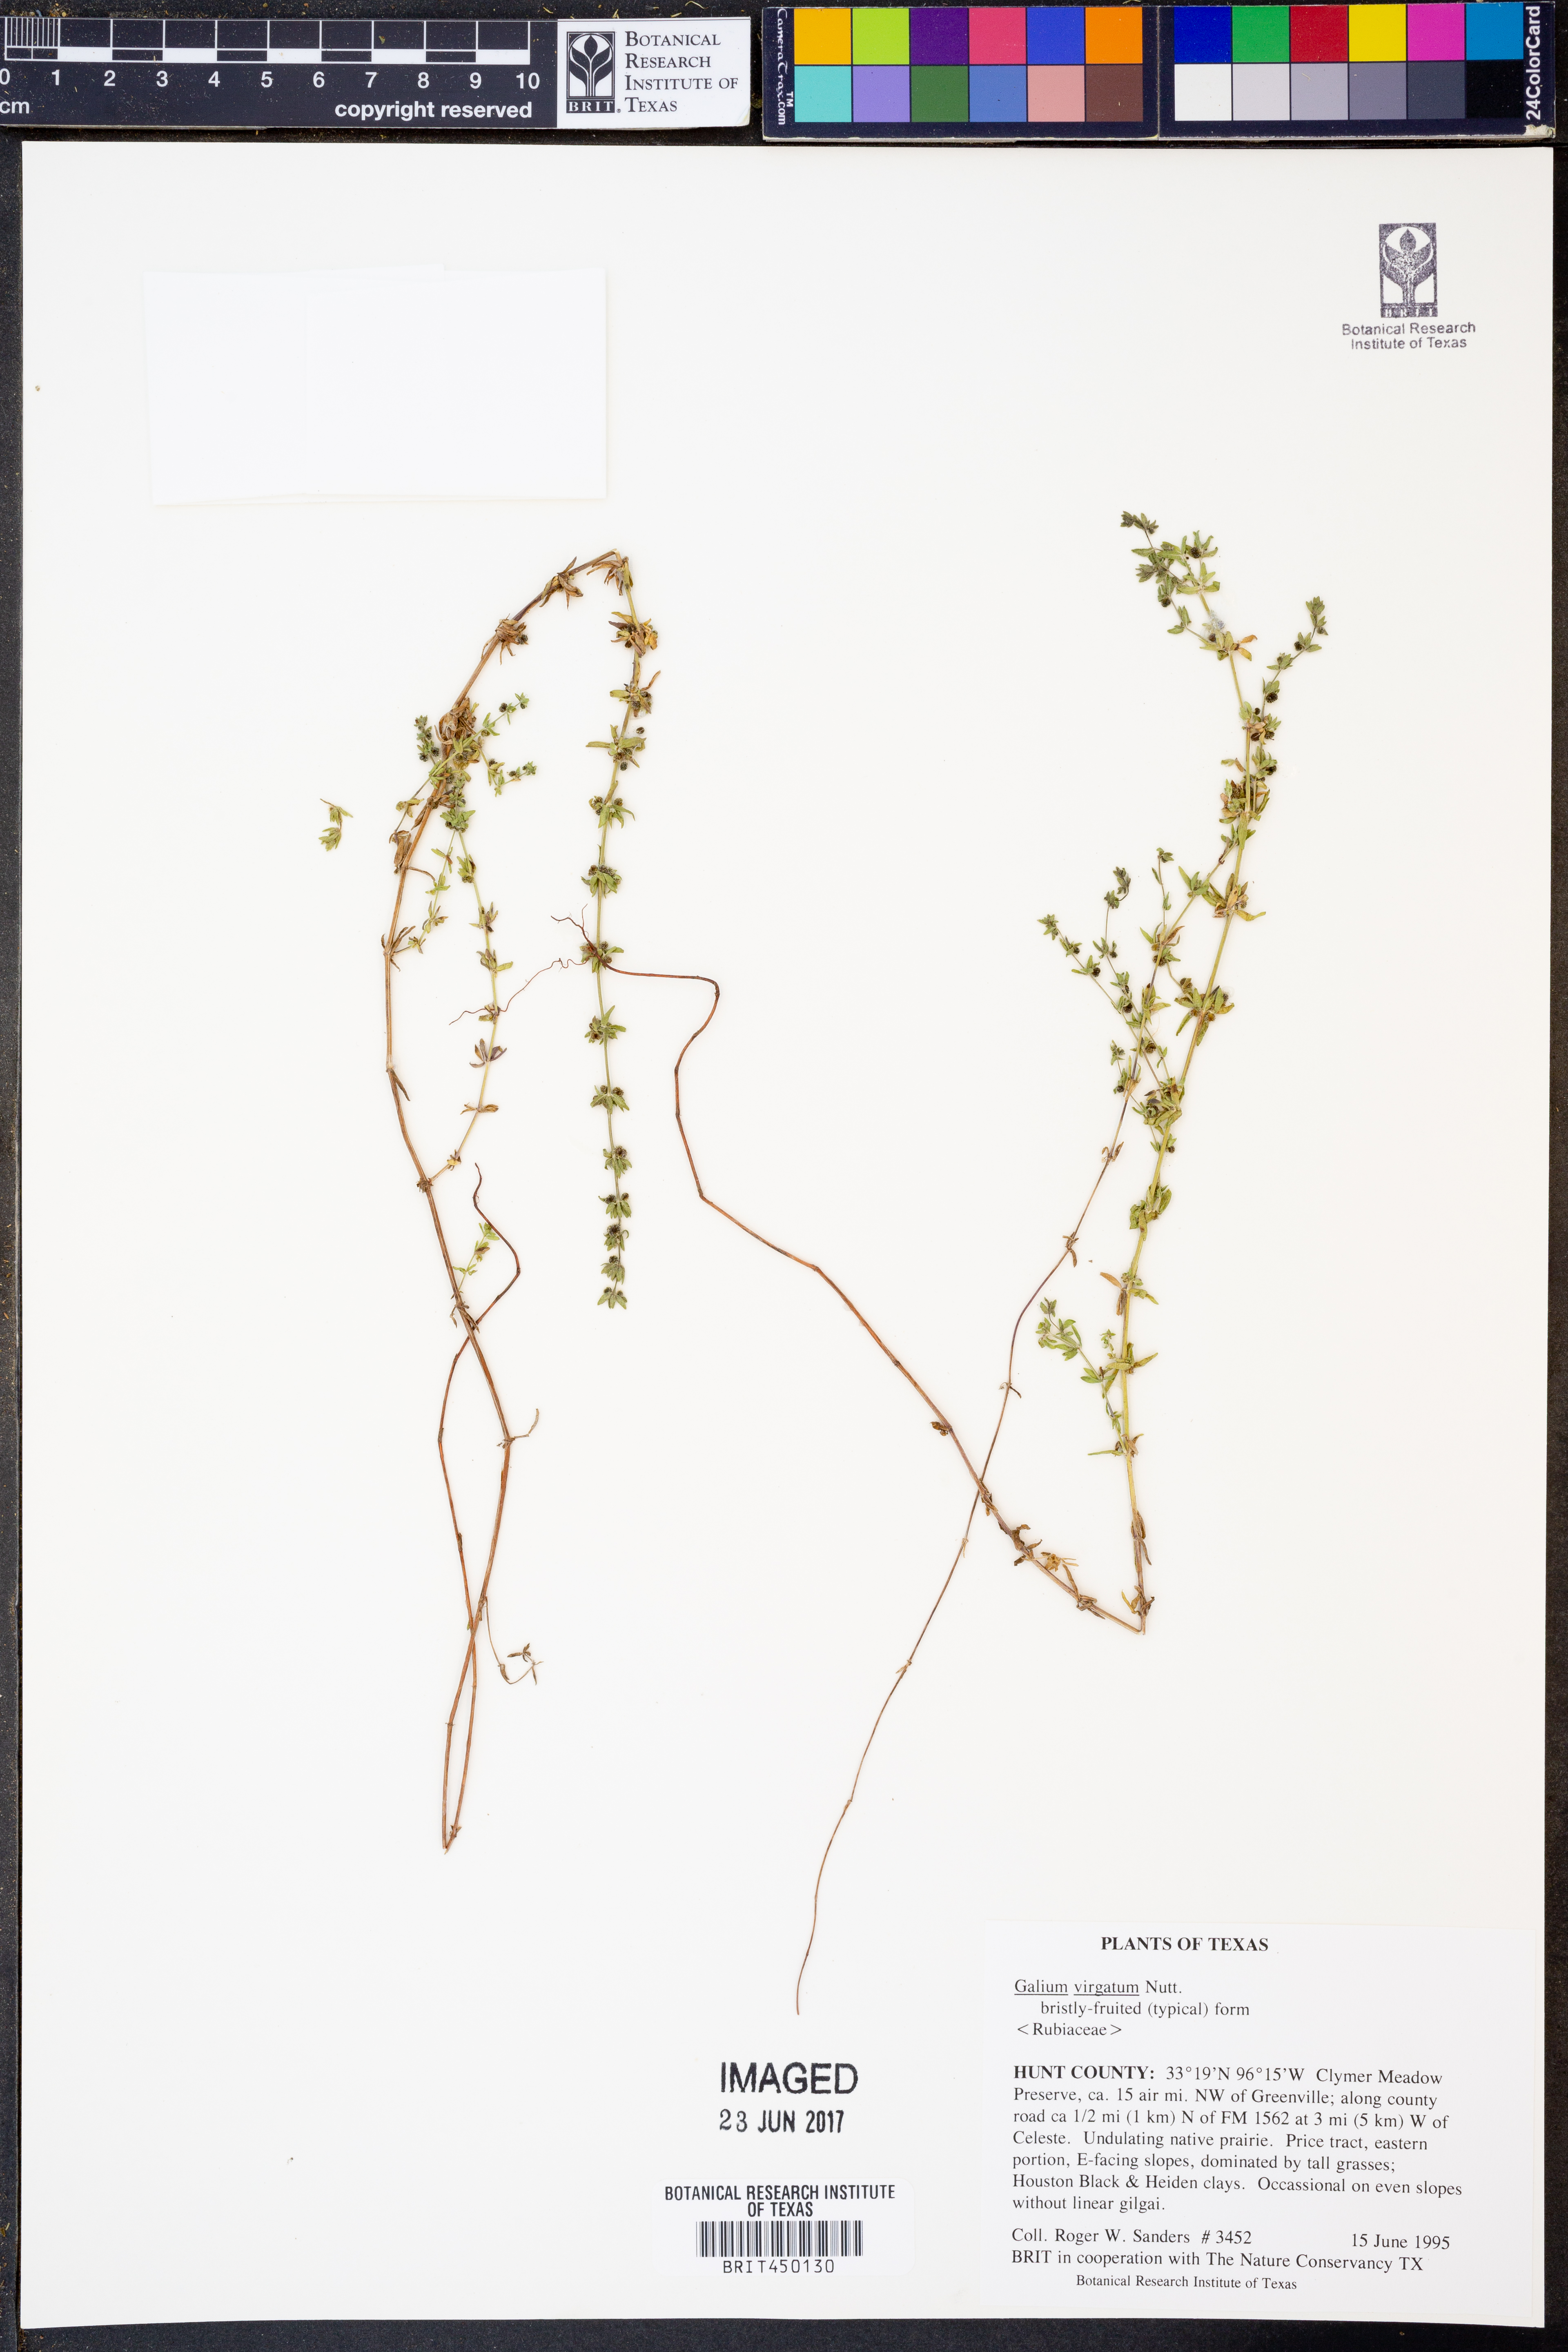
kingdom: Plantae
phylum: Tracheophyta
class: Magnoliopsida
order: Gentianales
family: Rubiaceae
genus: Galium
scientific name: Galium virgatum
